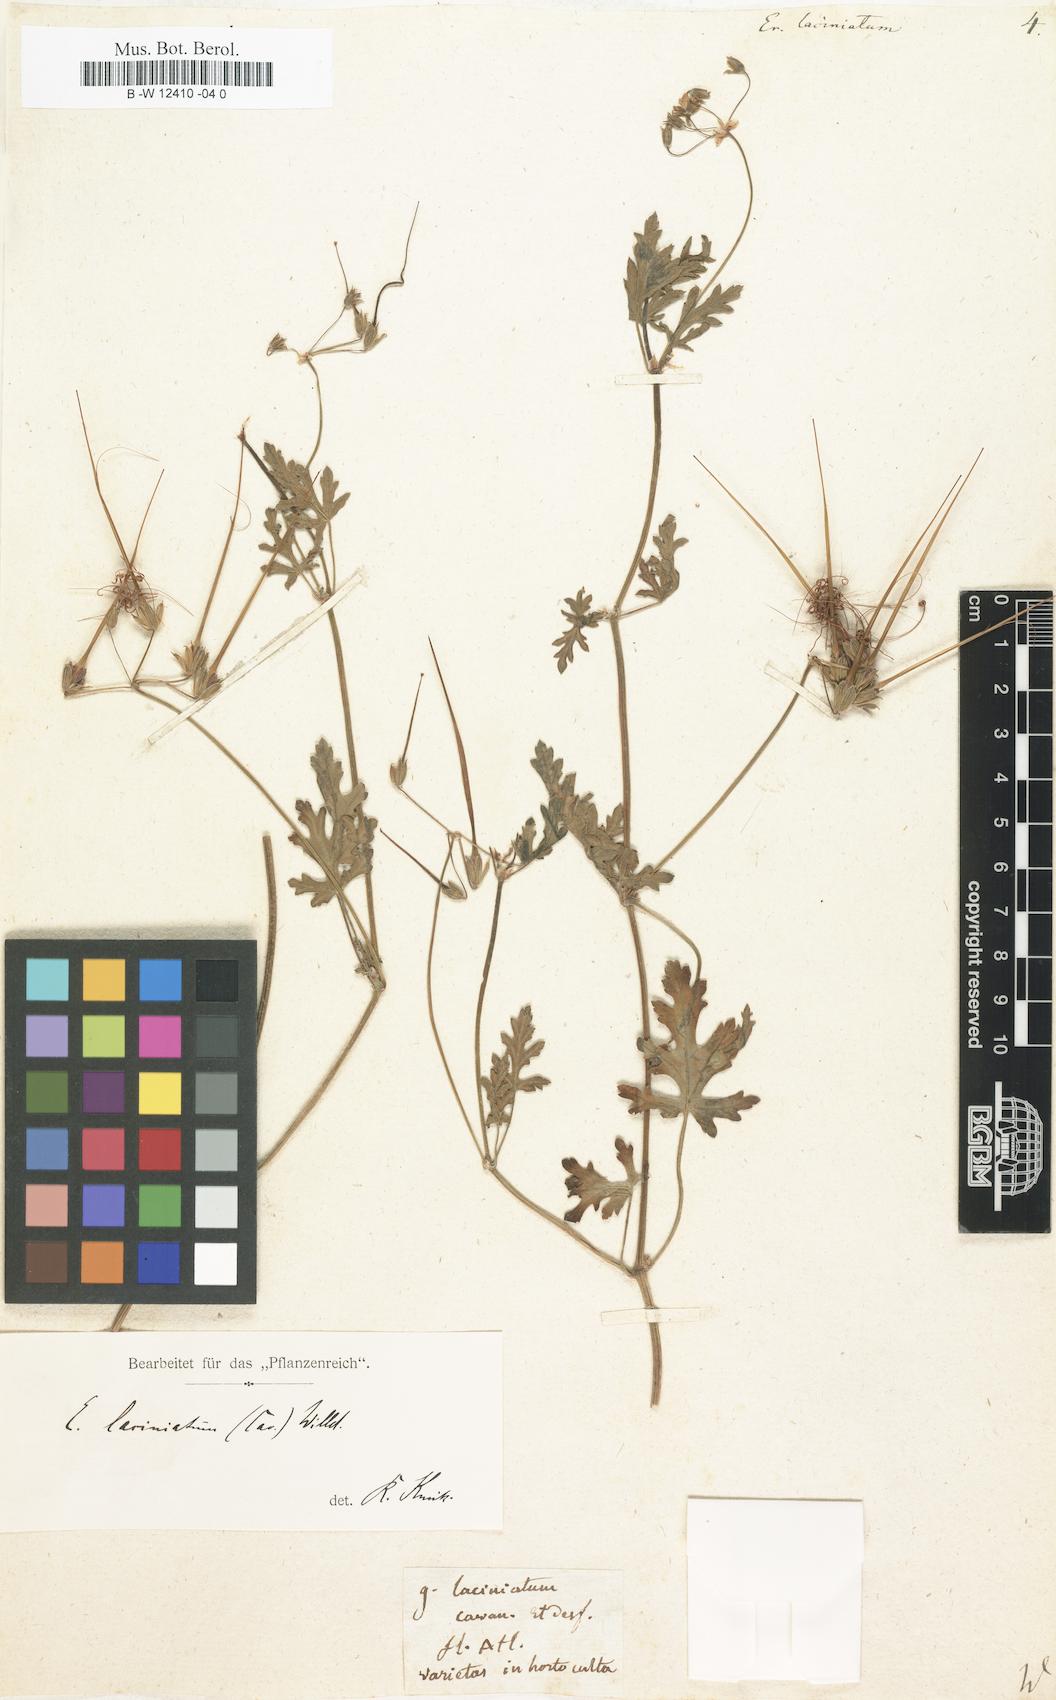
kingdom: Plantae
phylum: Tracheophyta
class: Magnoliopsida
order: Geraniales
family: Geraniaceae
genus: Erodium
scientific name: Erodium laciniatum
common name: Cutleaf stork's bill
